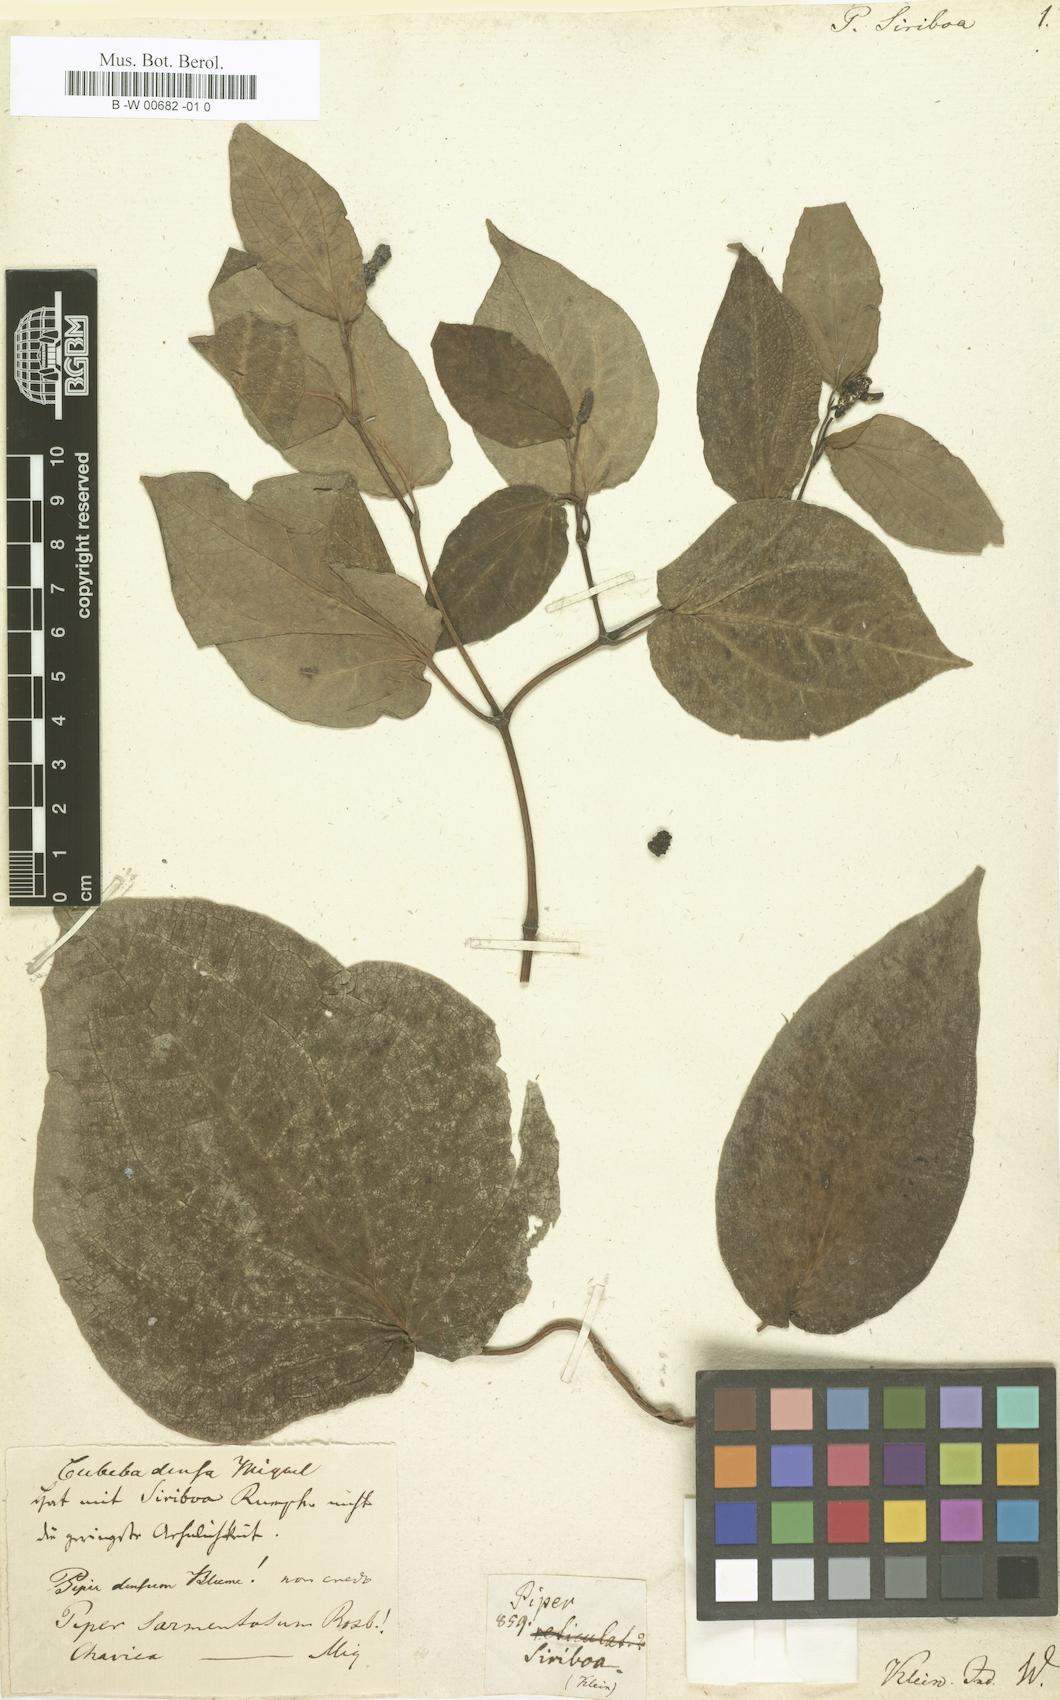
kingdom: Plantae
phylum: Tracheophyta
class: Magnoliopsida
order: Piperales
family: Piperaceae
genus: Piper
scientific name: Piper betle
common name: Betel pepper
